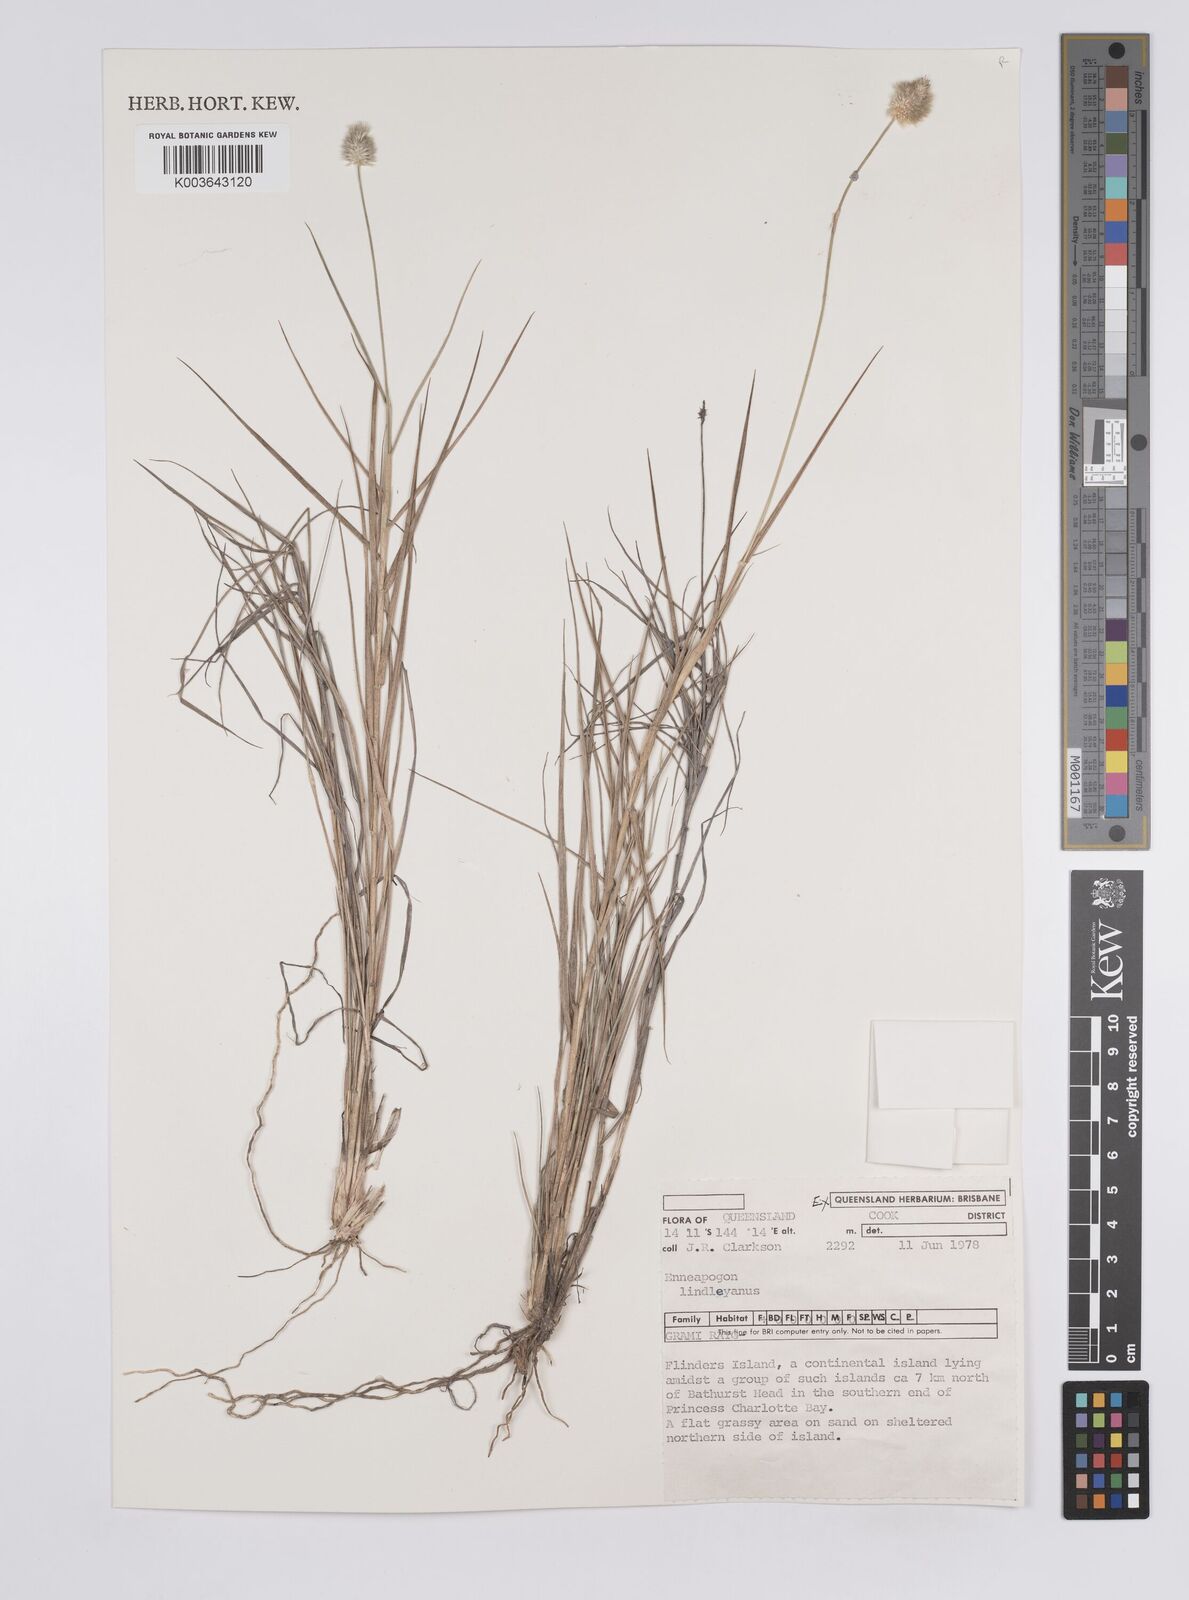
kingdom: Plantae
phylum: Tracheophyta
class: Liliopsida
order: Poales
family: Poaceae
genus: Enneapogon
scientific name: Enneapogon lindleyanus
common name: Conetop nineawn
